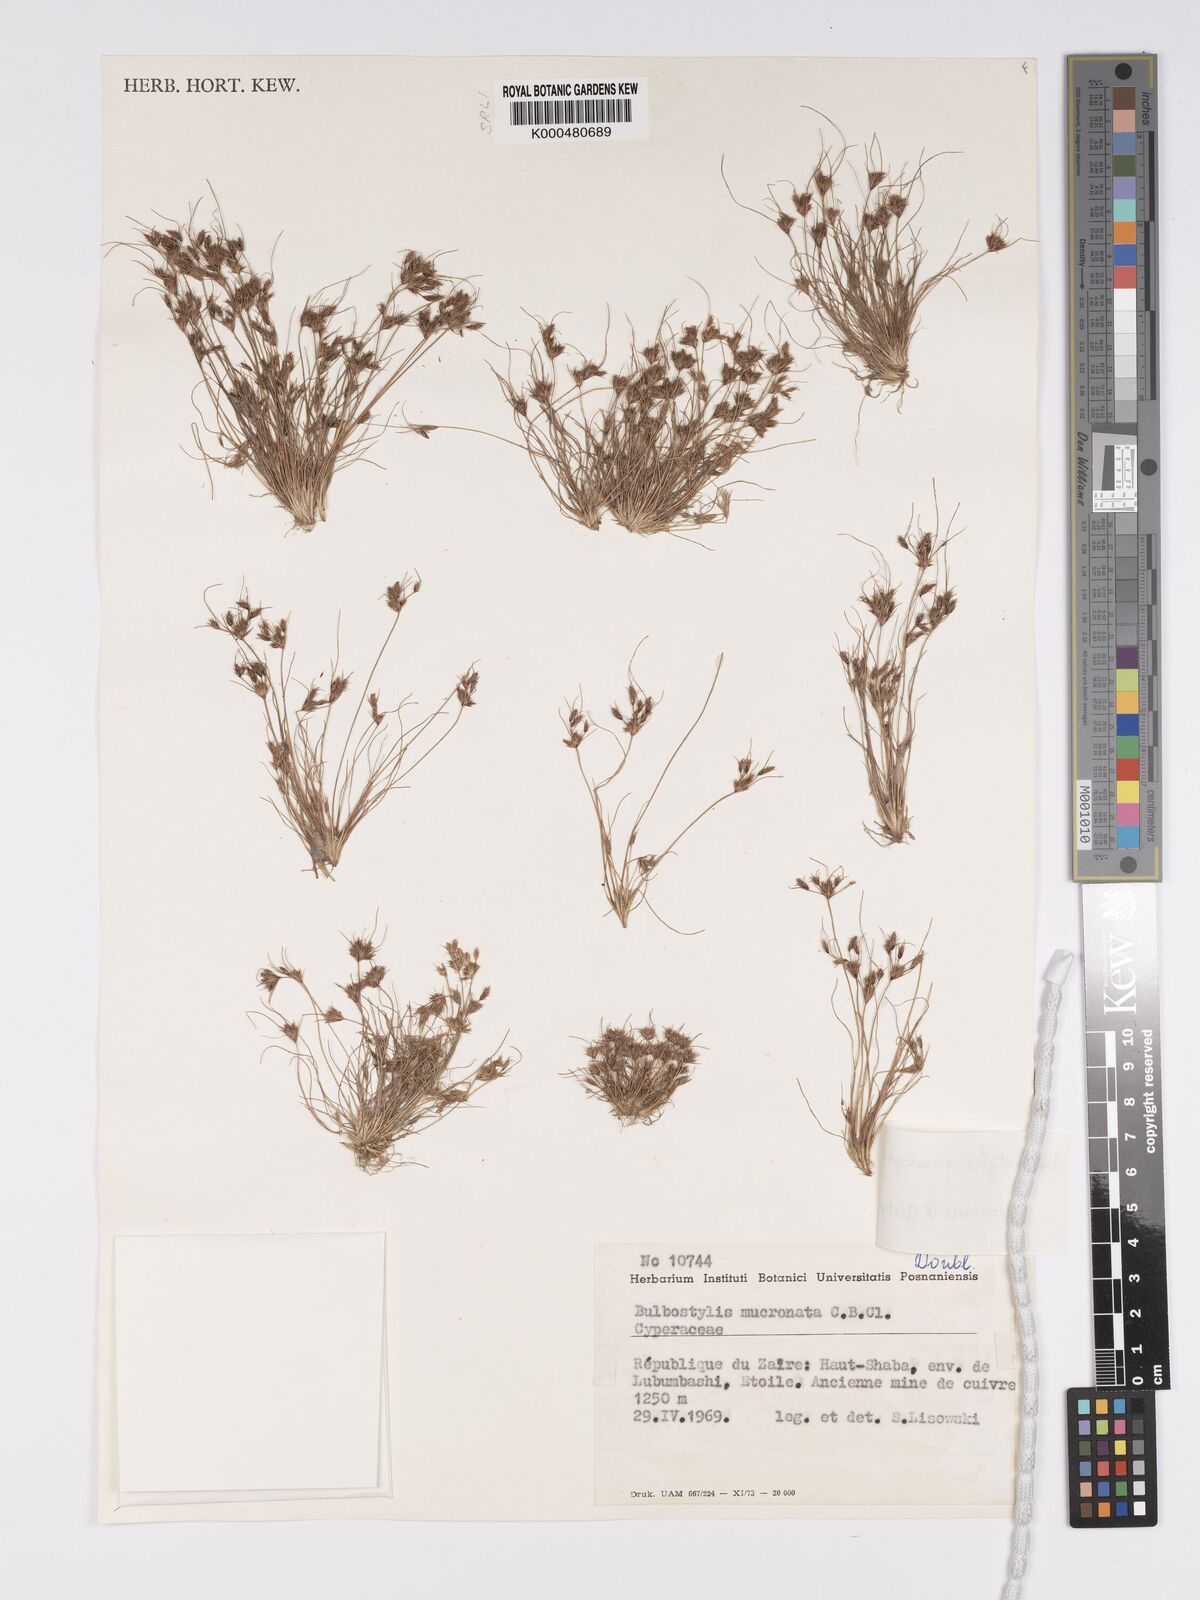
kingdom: Plantae
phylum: Tracheophyta
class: Liliopsida
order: Poales
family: Cyperaceae
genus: Bulbostylis
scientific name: Bulbostylis abbreviata
